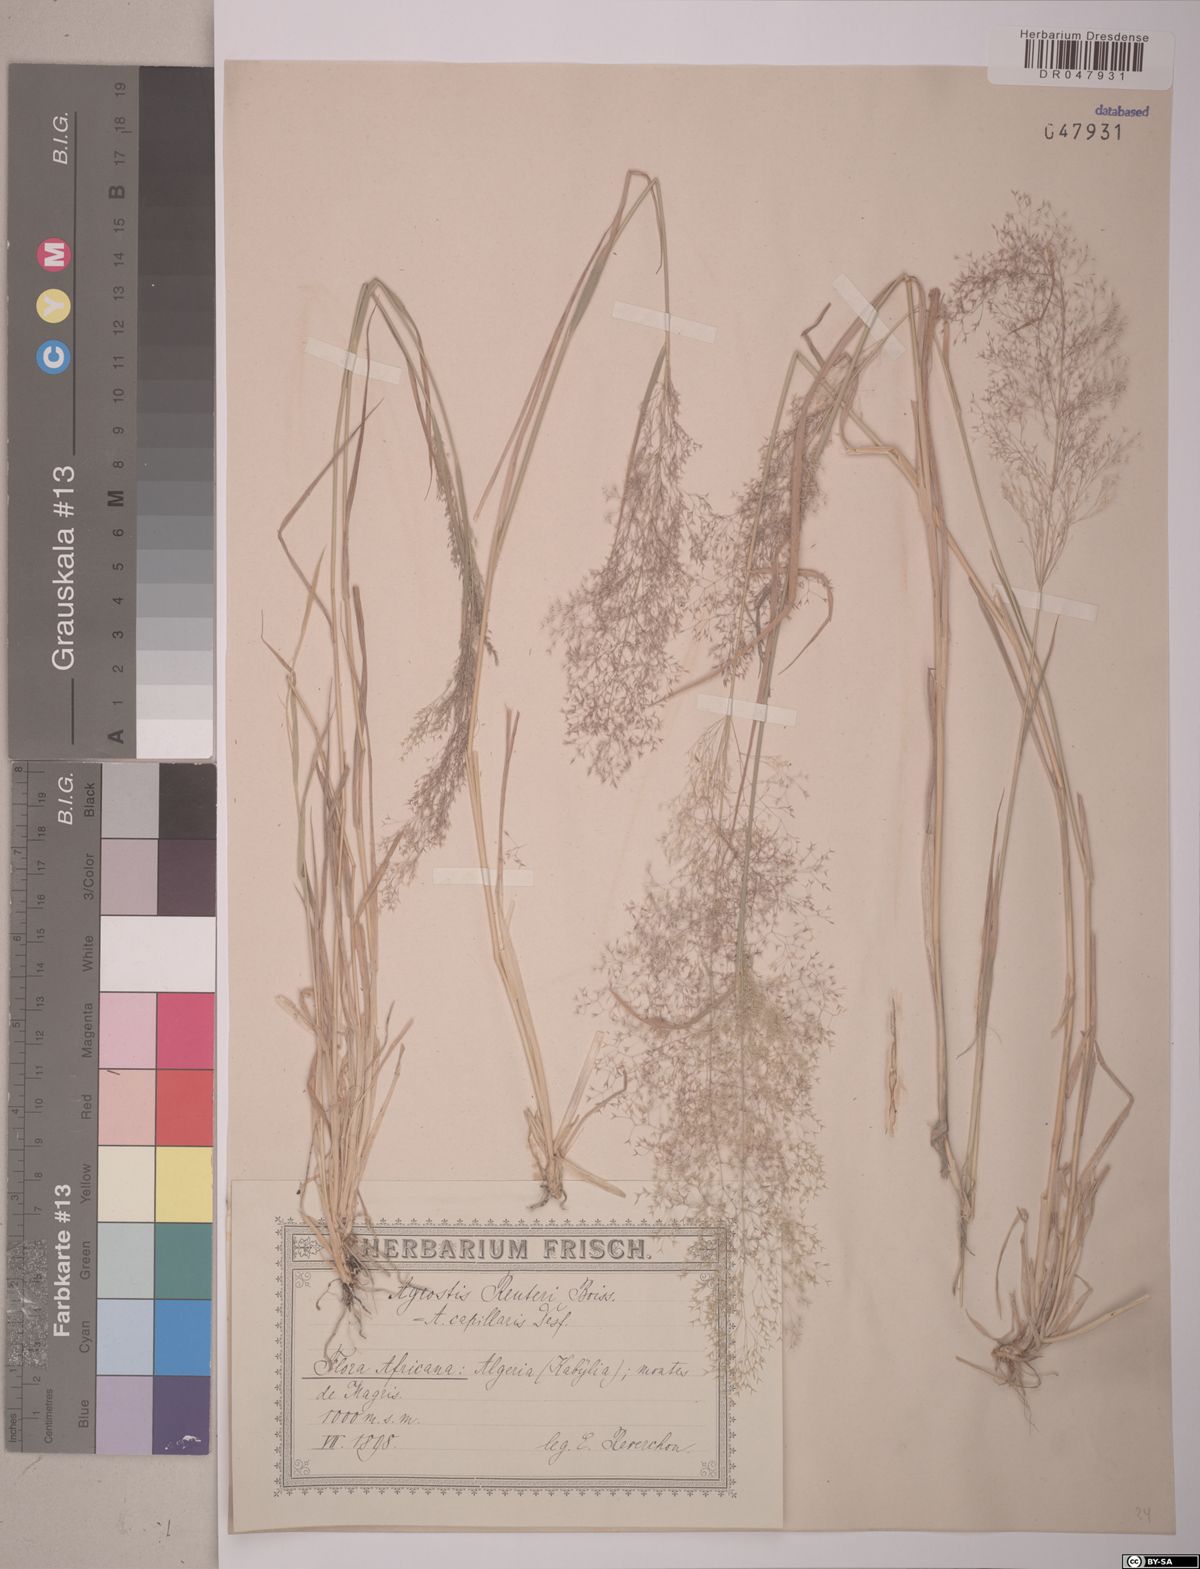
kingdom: Plantae
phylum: Tracheophyta
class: Liliopsida
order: Poales
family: Poaceae
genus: Agrostis
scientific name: Agrostis reuteri
